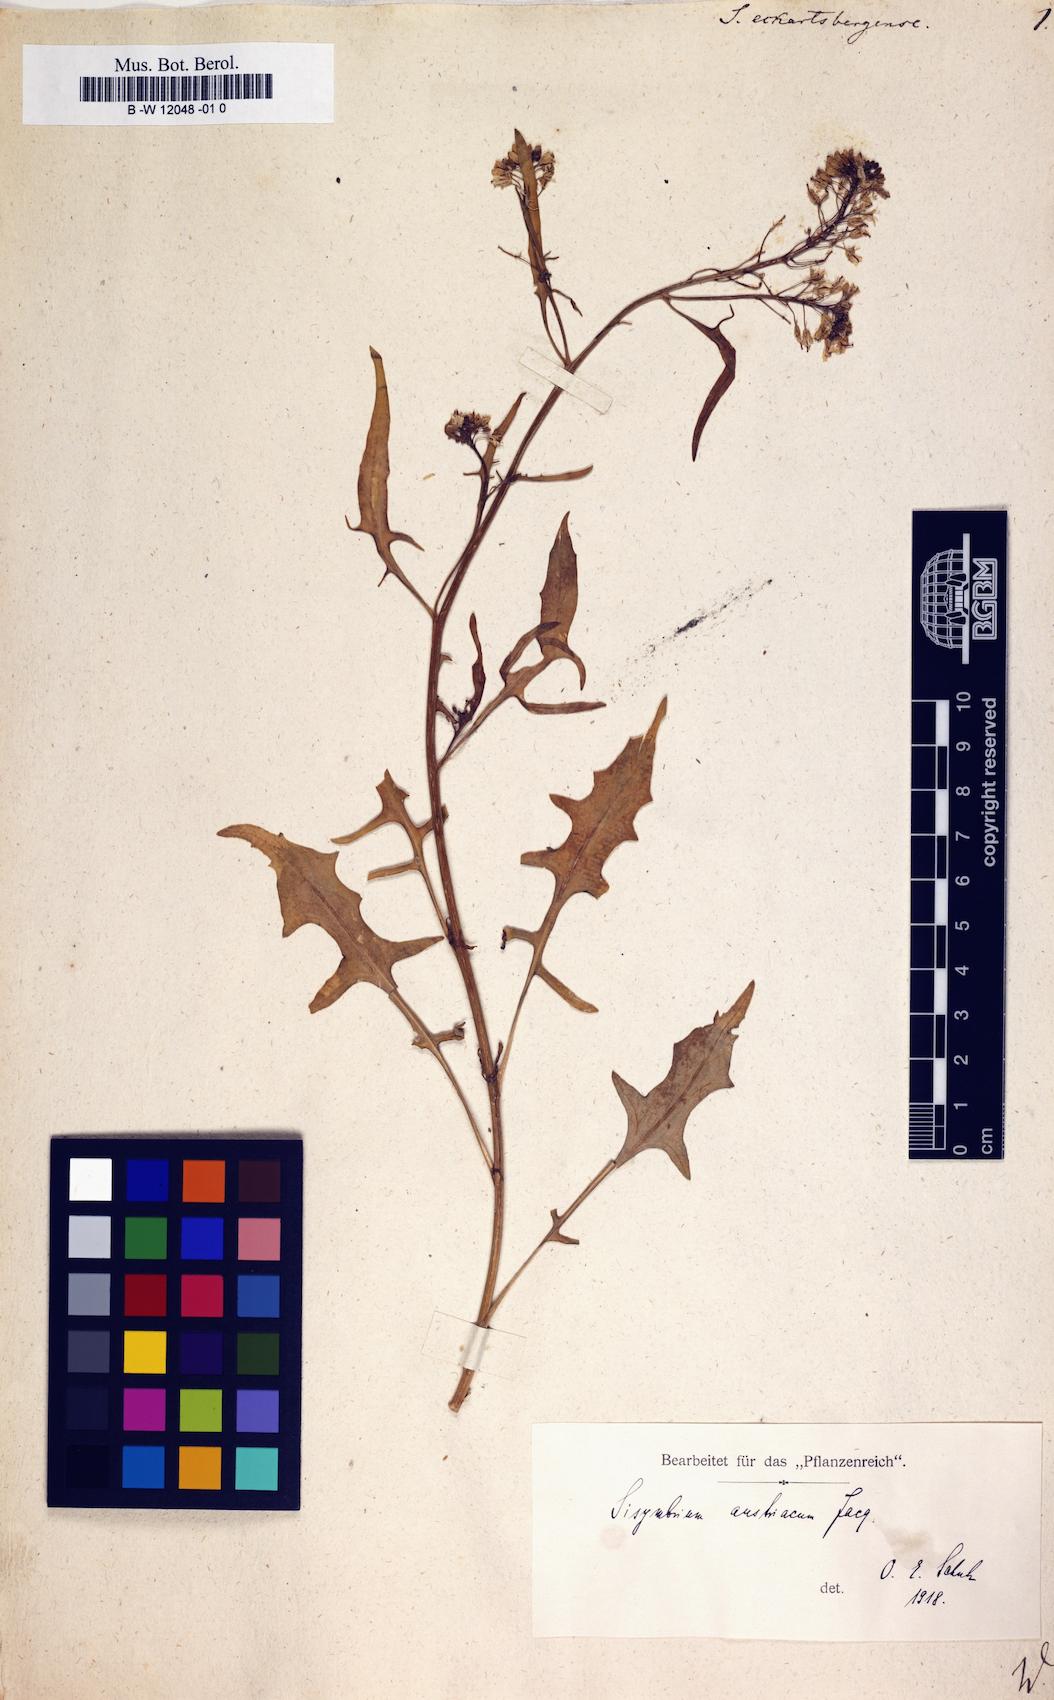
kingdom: Plantae
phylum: Tracheophyta
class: Magnoliopsida
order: Brassicales
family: Brassicaceae
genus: Sisymbrium
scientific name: Sisymbrium austriacum
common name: Jeweled rocket
